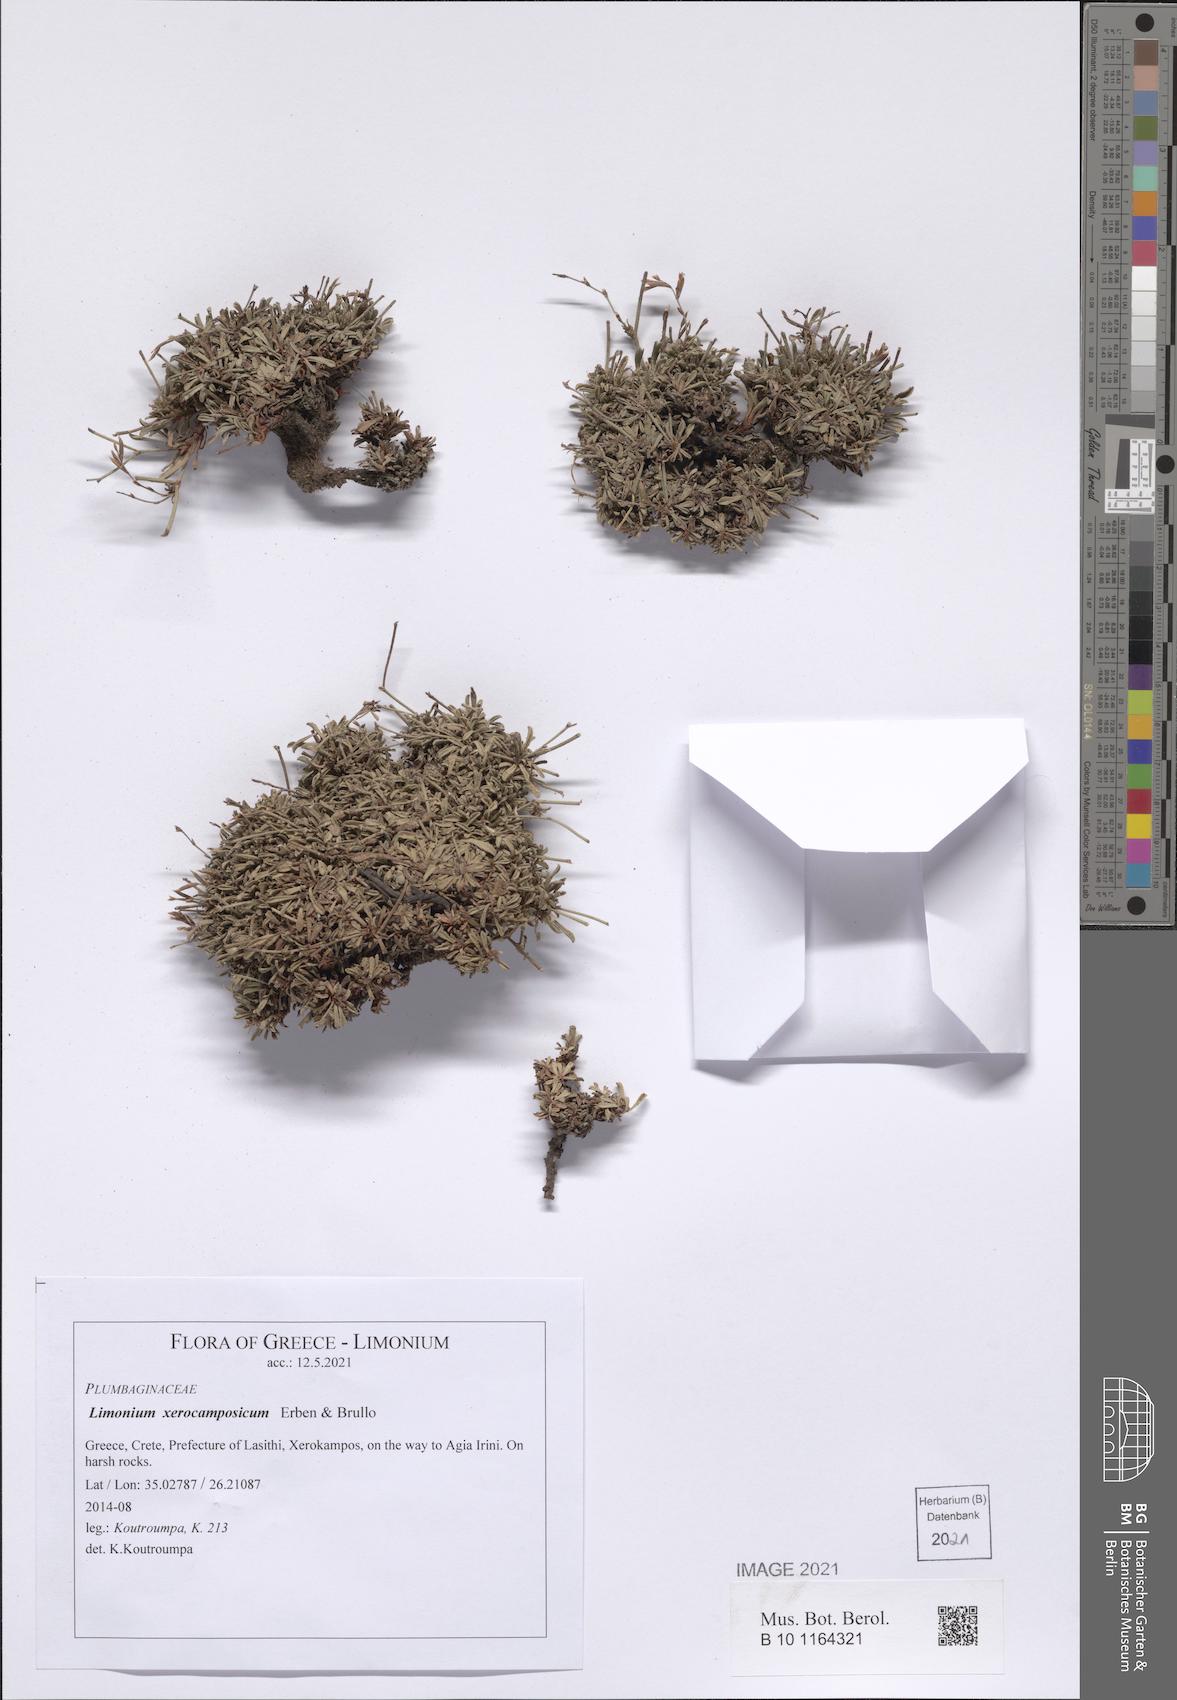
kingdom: Plantae
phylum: Tracheophyta
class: Magnoliopsida
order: Caryophyllales
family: Plumbaginaceae
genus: Limonium
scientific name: Limonium xerocamposicum
